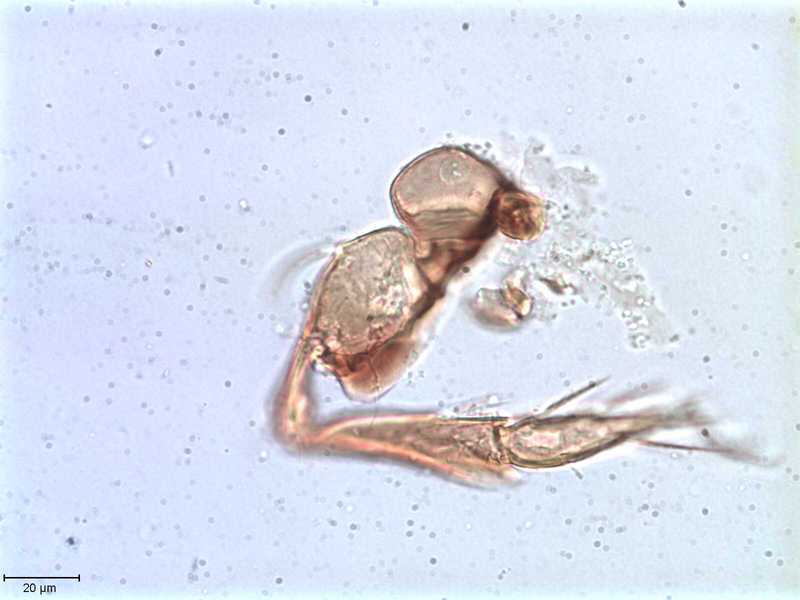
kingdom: Animalia
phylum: Arthropoda
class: Arachnida
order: Sarcoptiformes
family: Tegoribatidae
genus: Plakoribates
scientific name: Plakoribates multicuspidatus
